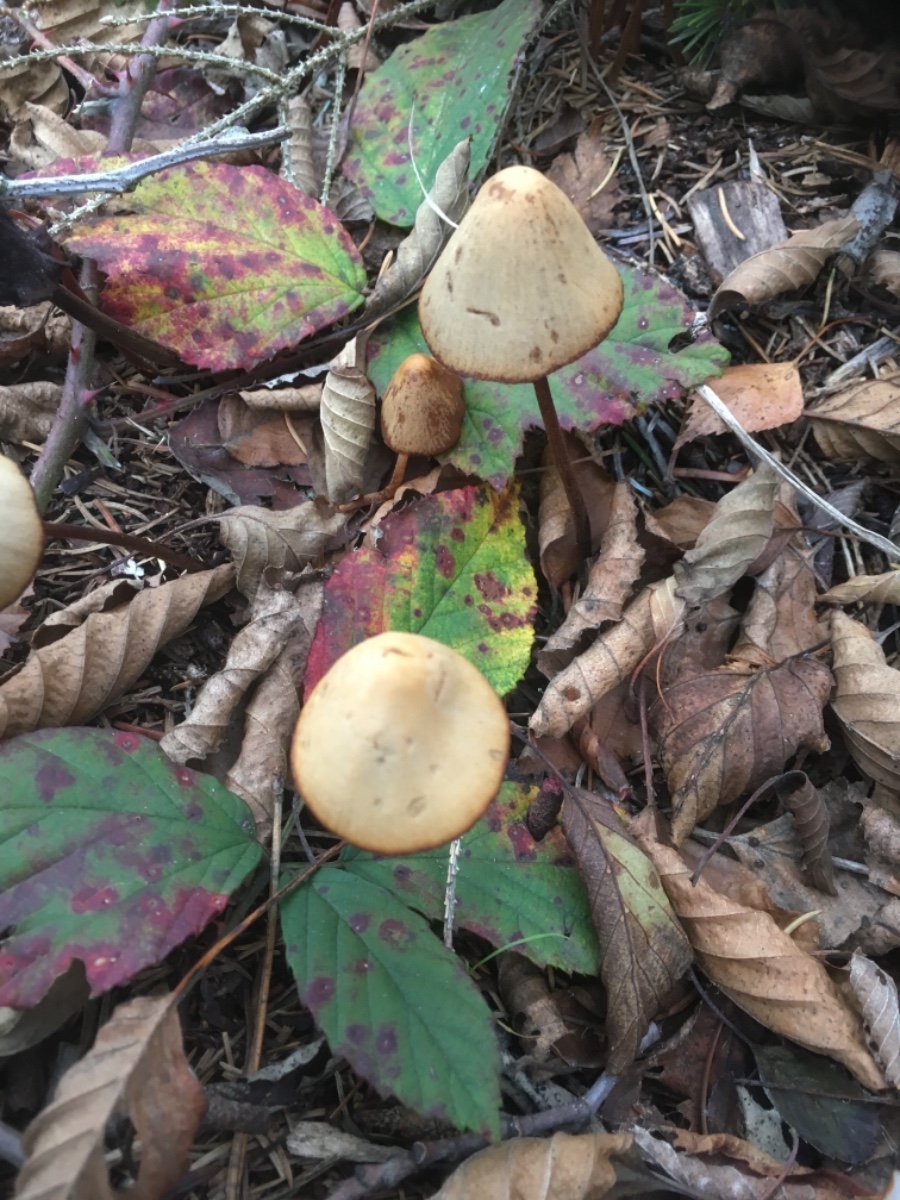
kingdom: Fungi
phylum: Basidiomycota
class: Agaricomycetes
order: Agaricales
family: Bolbitiaceae
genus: Conocybe
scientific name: Conocybe
